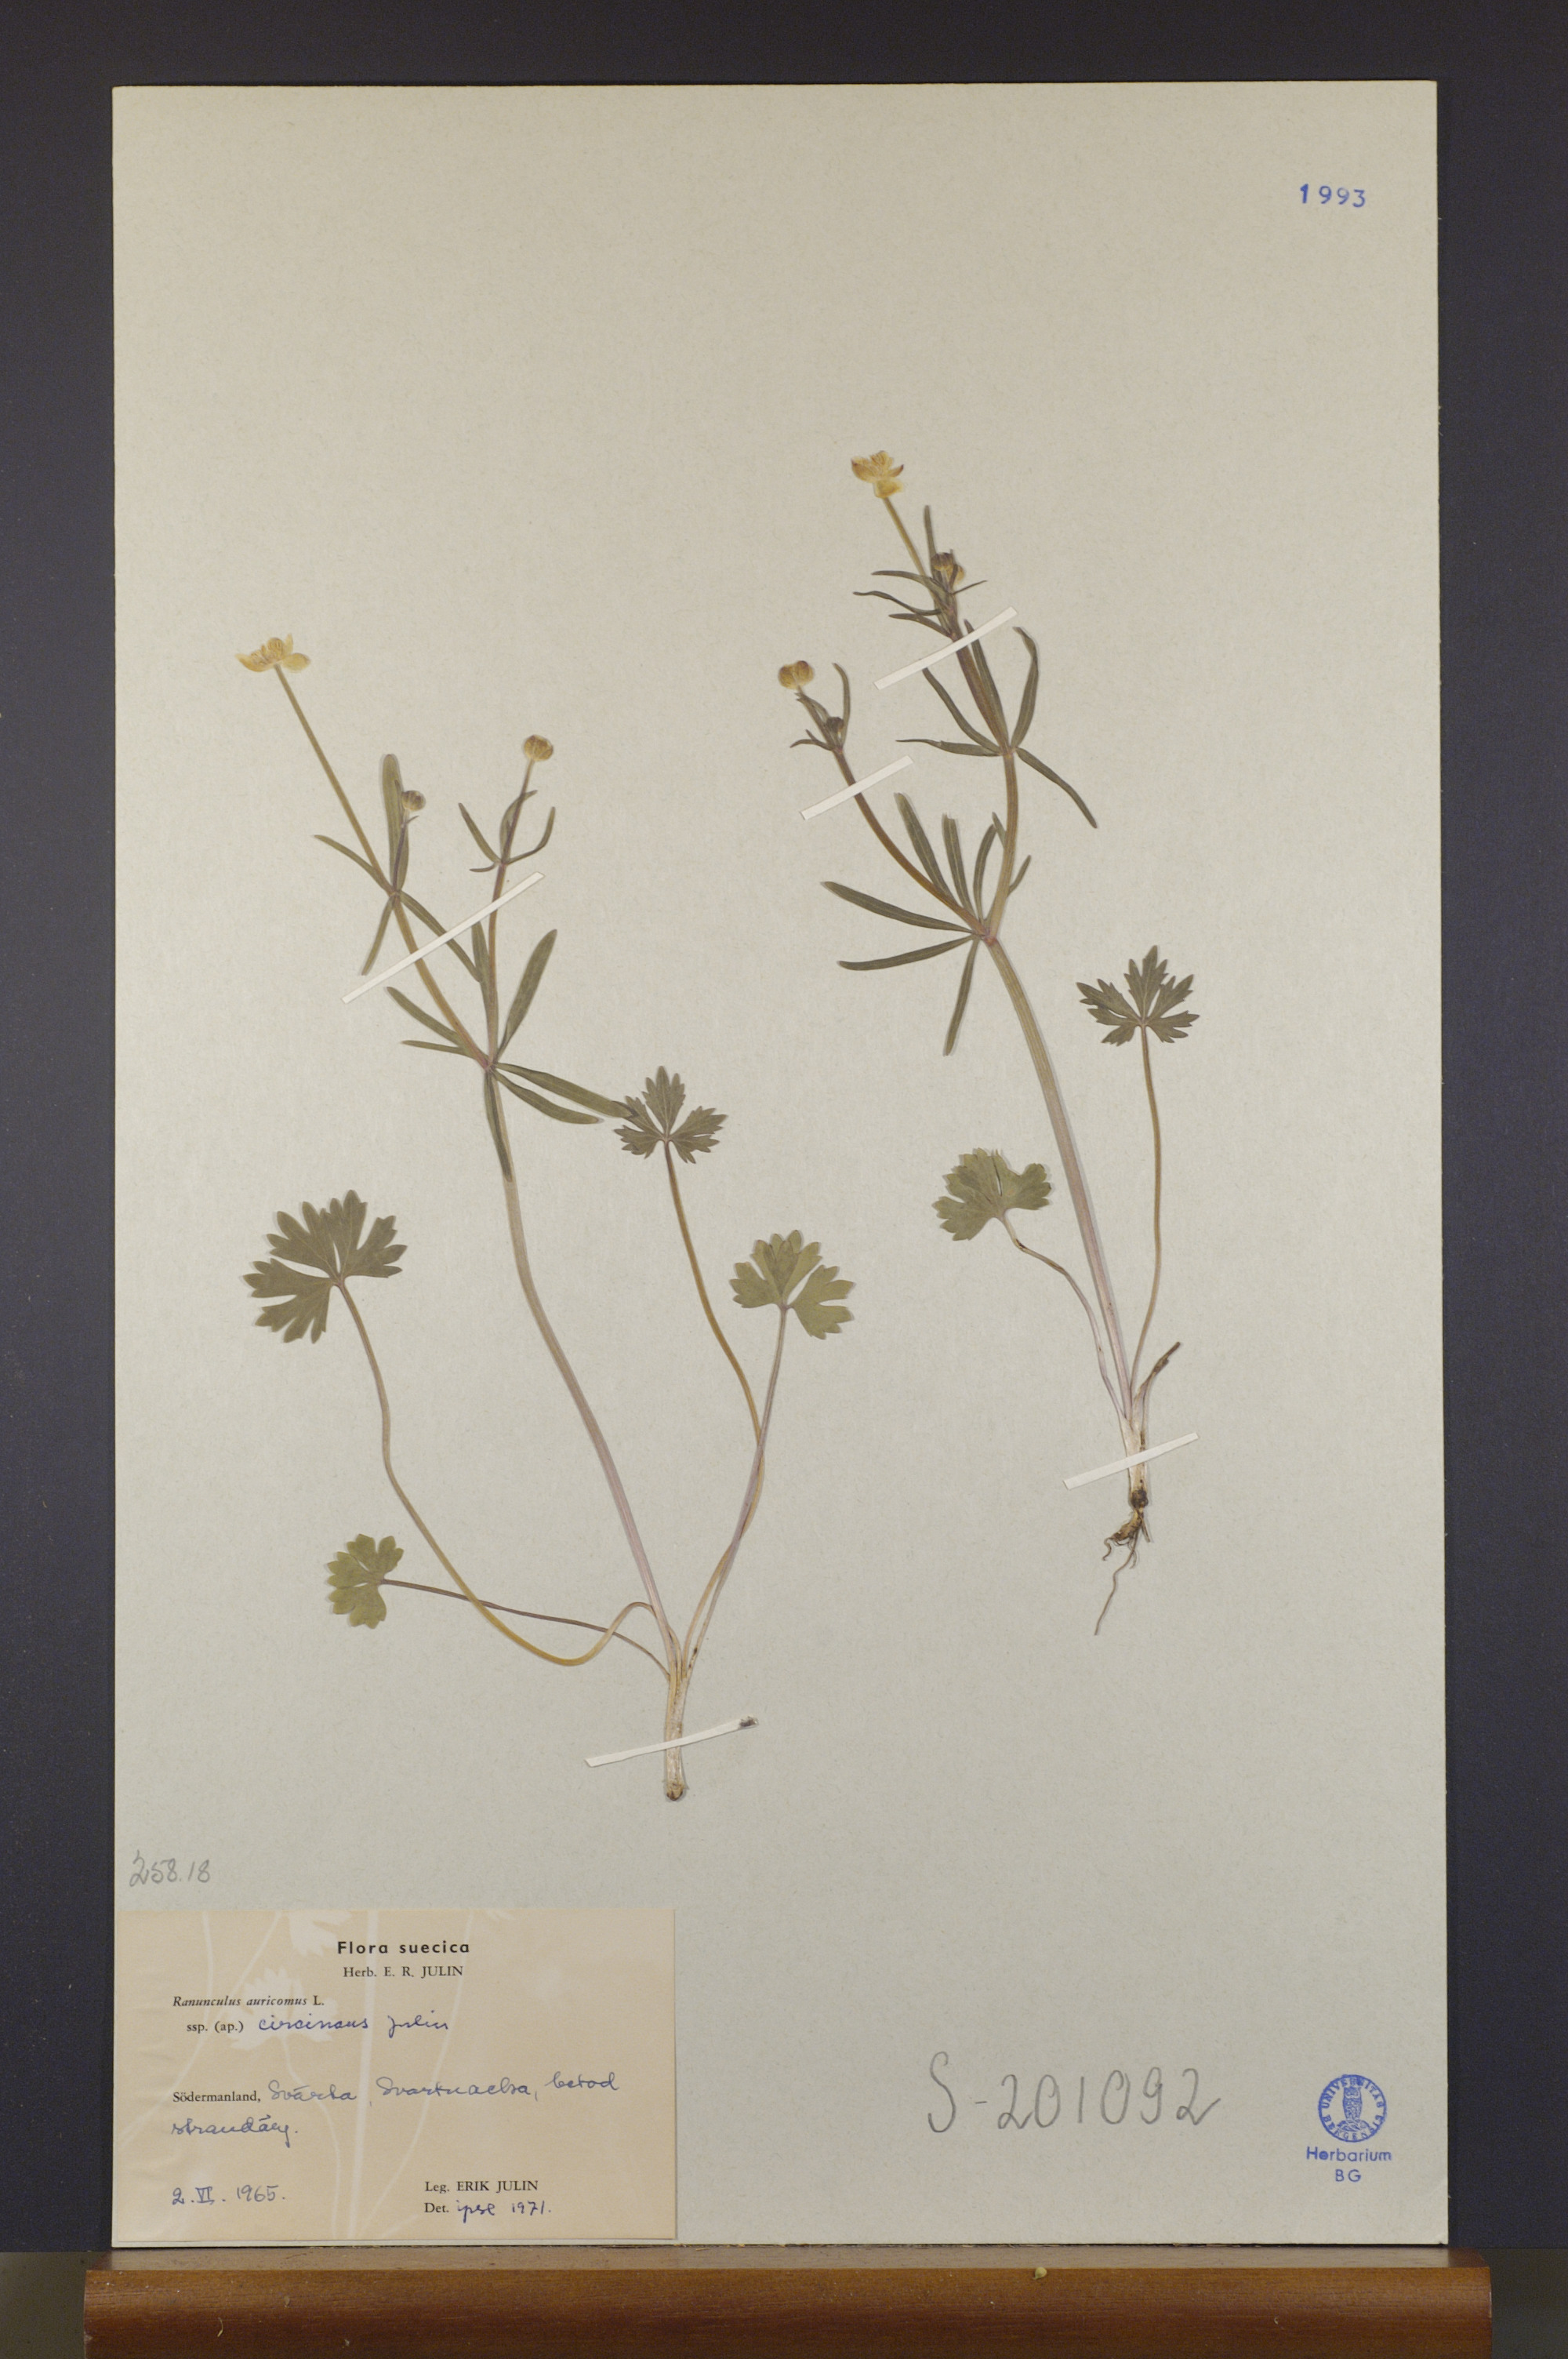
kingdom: Plantae
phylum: Tracheophyta
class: Magnoliopsida
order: Ranunculales
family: Ranunculaceae
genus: Ranunculus
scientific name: Ranunculus circinans
